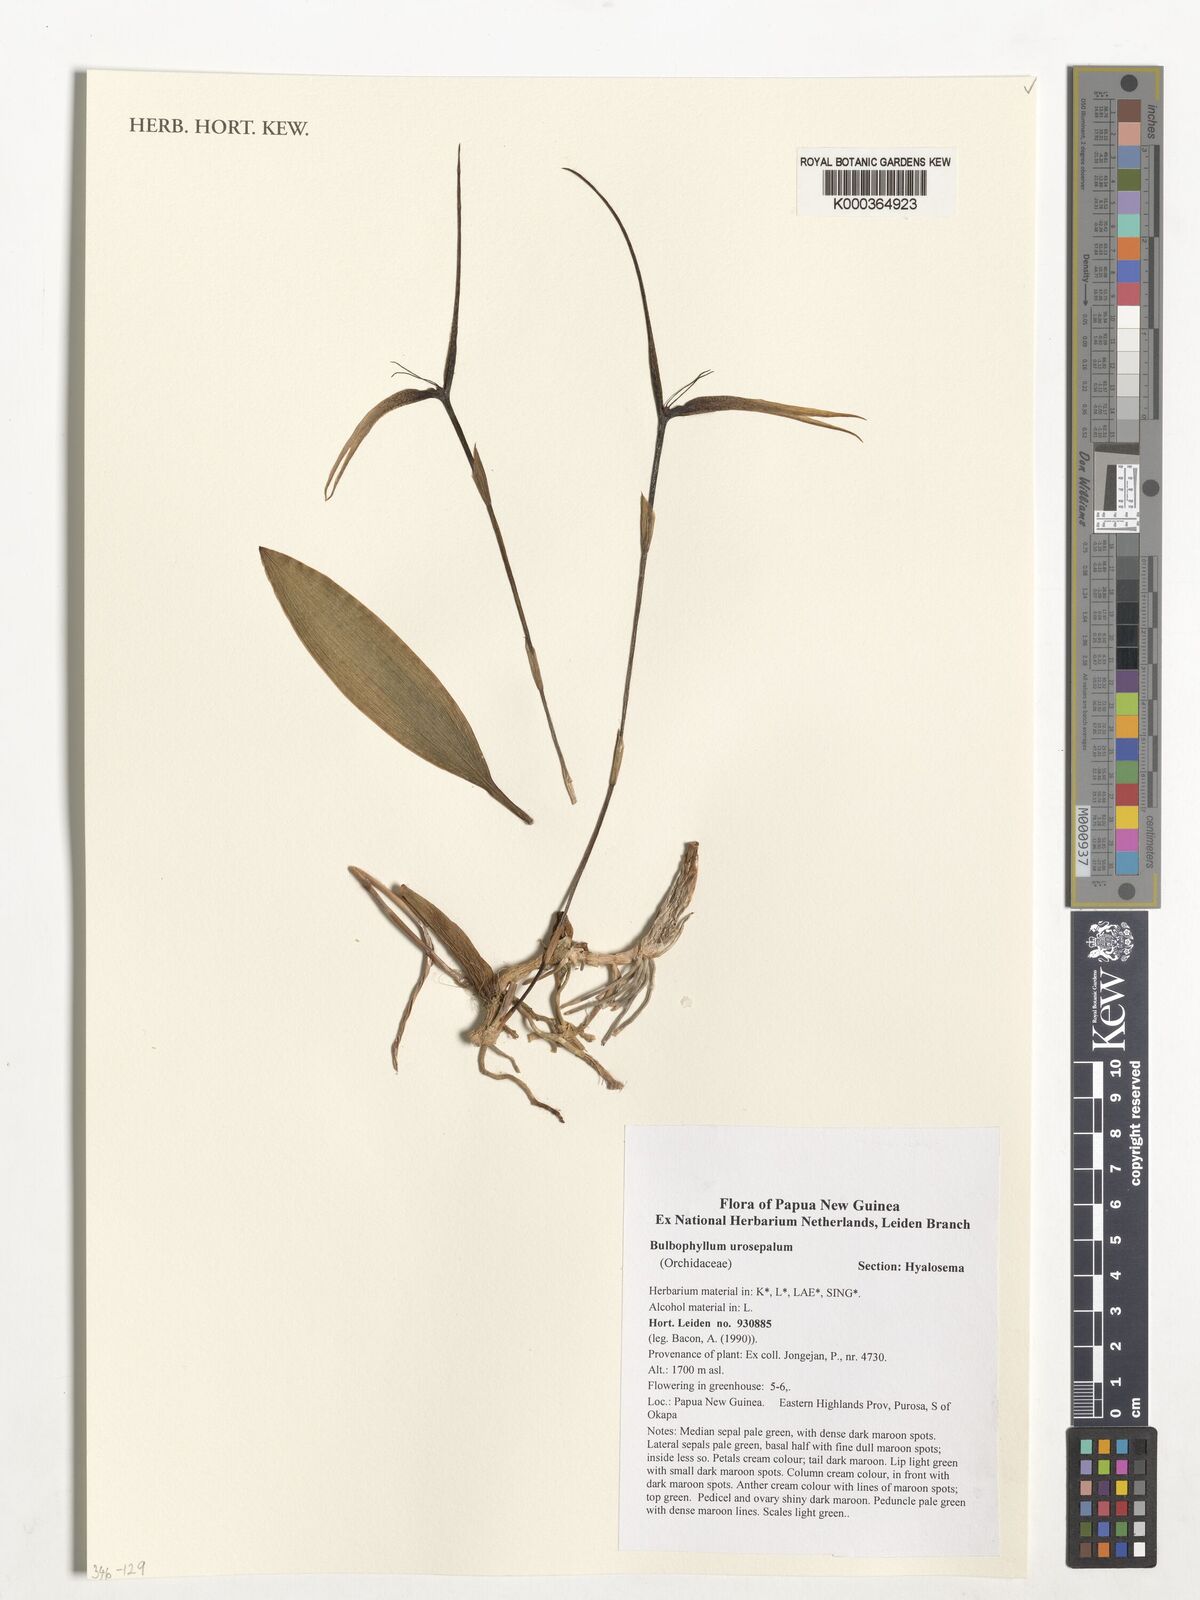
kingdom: Plantae
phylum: Tracheophyta
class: Liliopsida
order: Asparagales
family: Orchidaceae
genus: Bulbophyllum
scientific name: Bulbophyllum urosepalum
